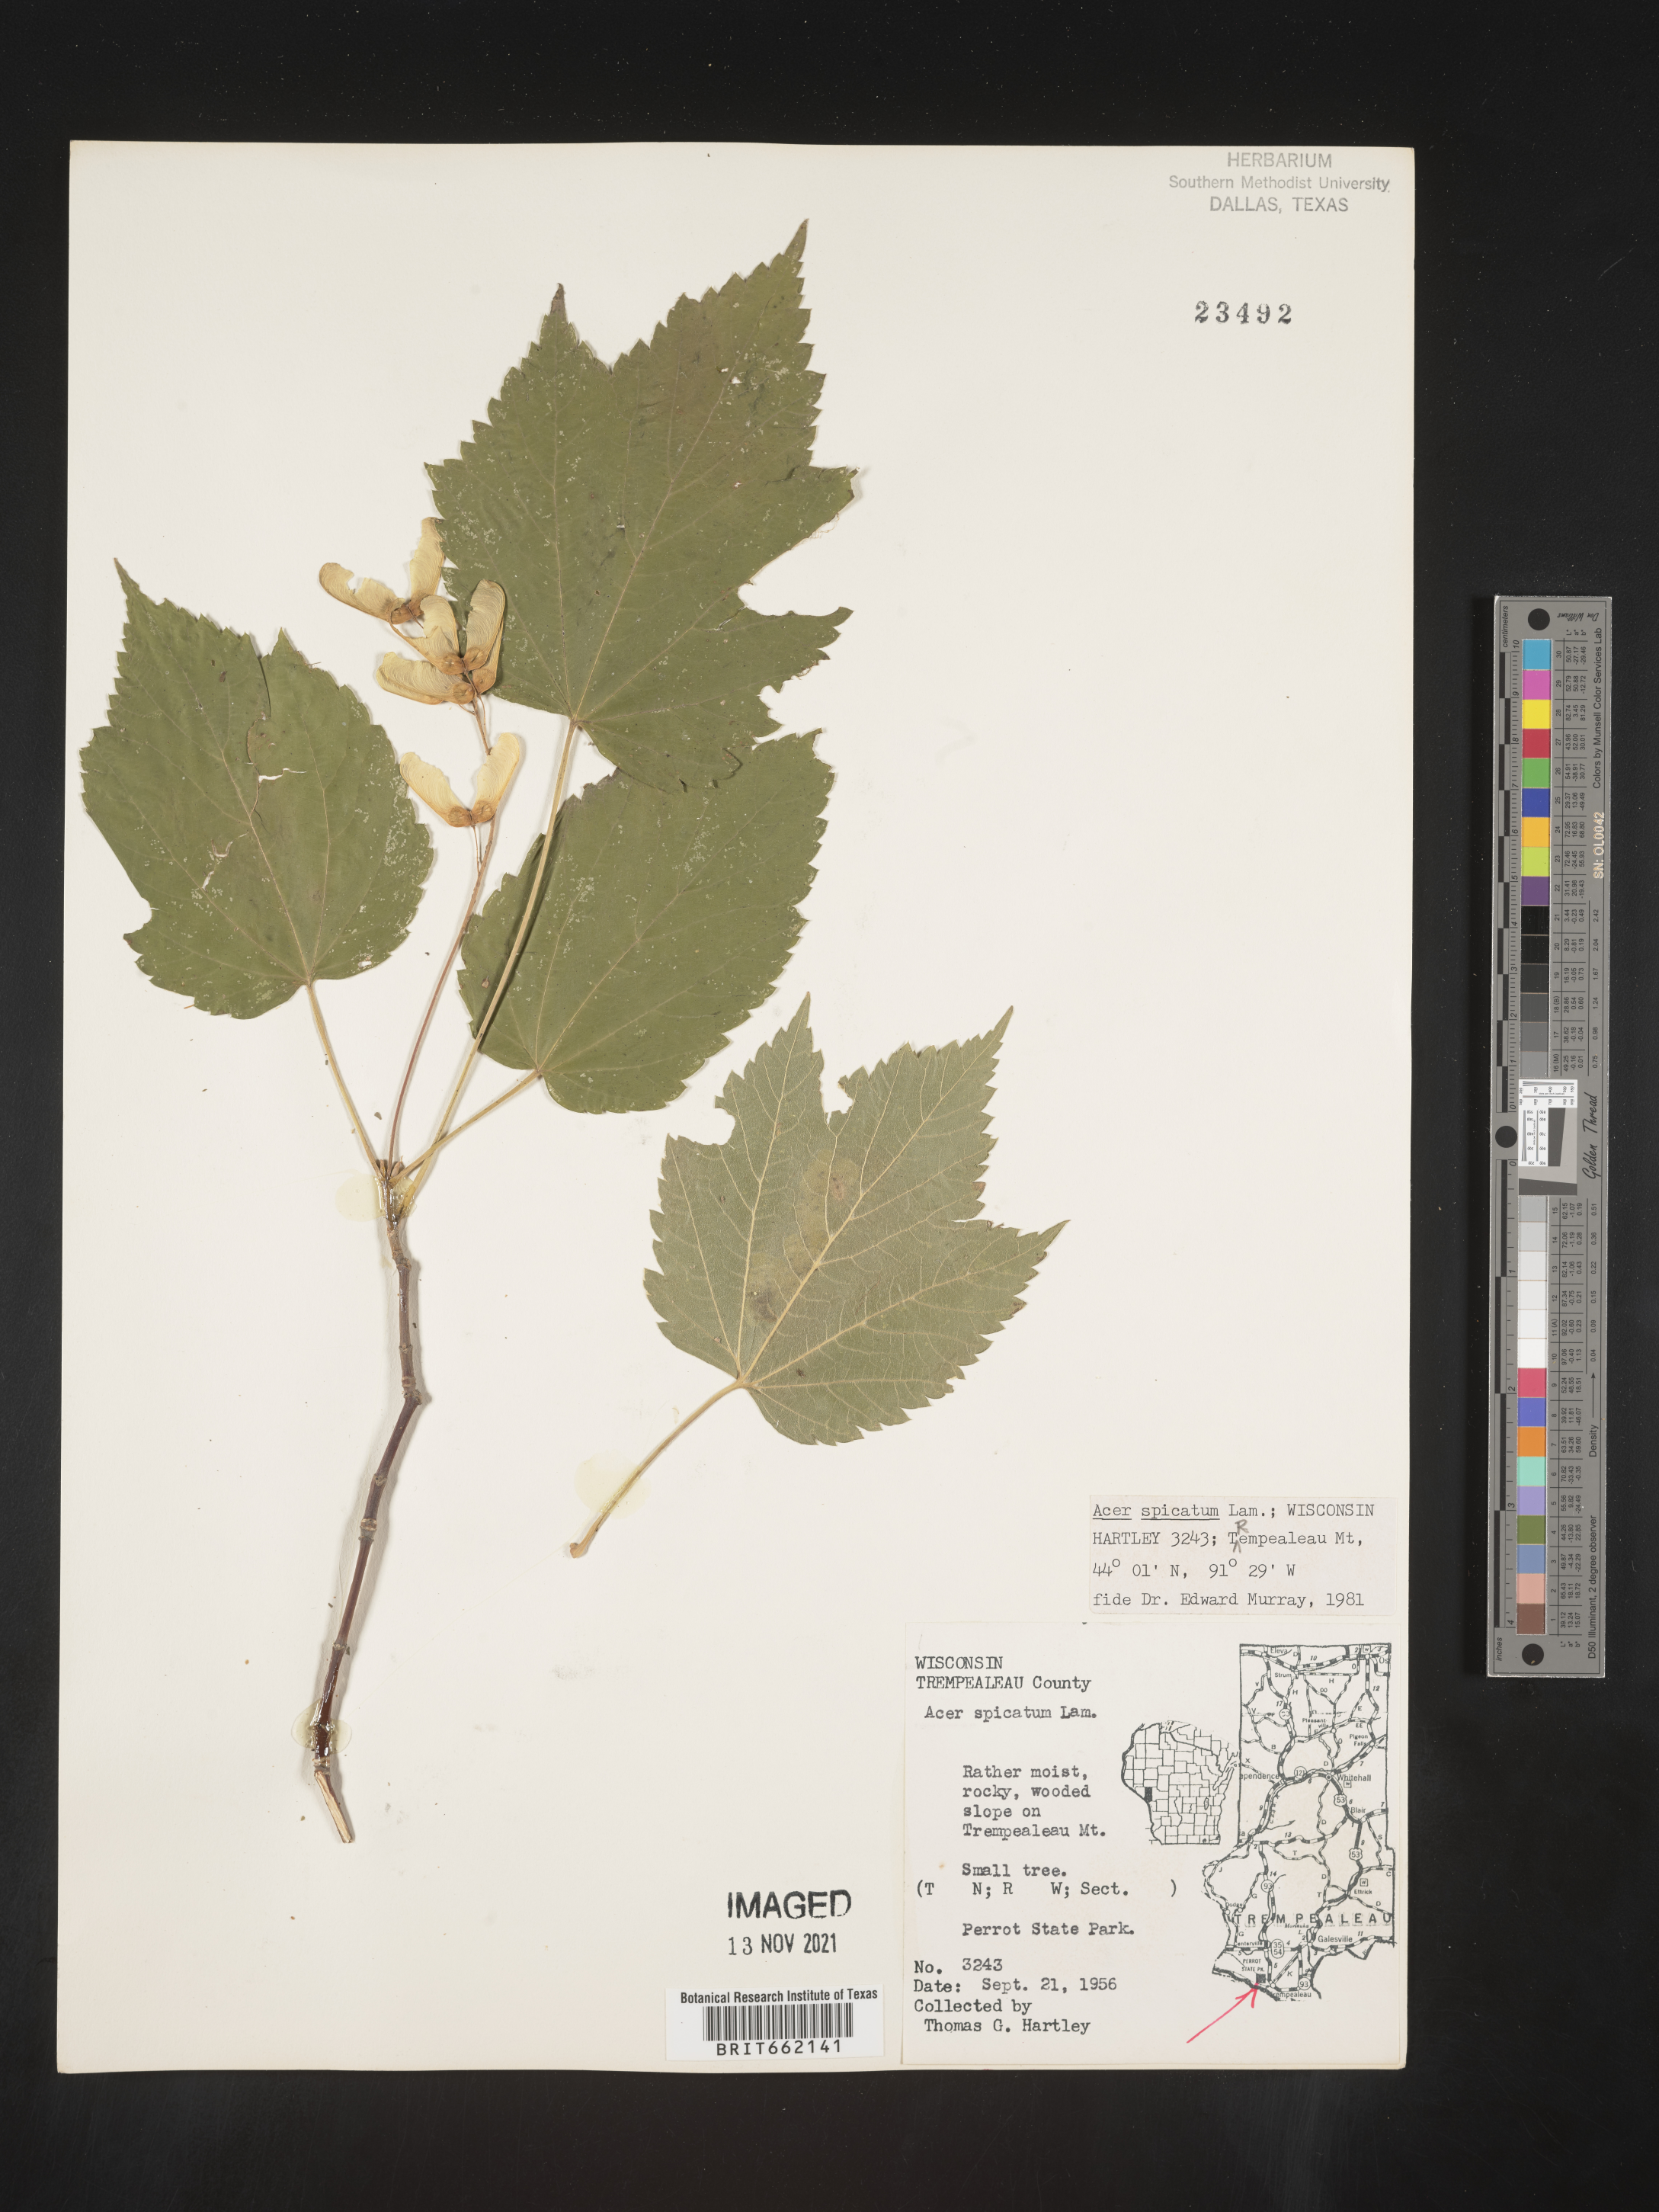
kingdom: Plantae
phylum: Tracheophyta
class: Magnoliopsida
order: Sapindales
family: Sapindaceae
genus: Acer
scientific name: Acer spicatum
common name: Mountain maple
